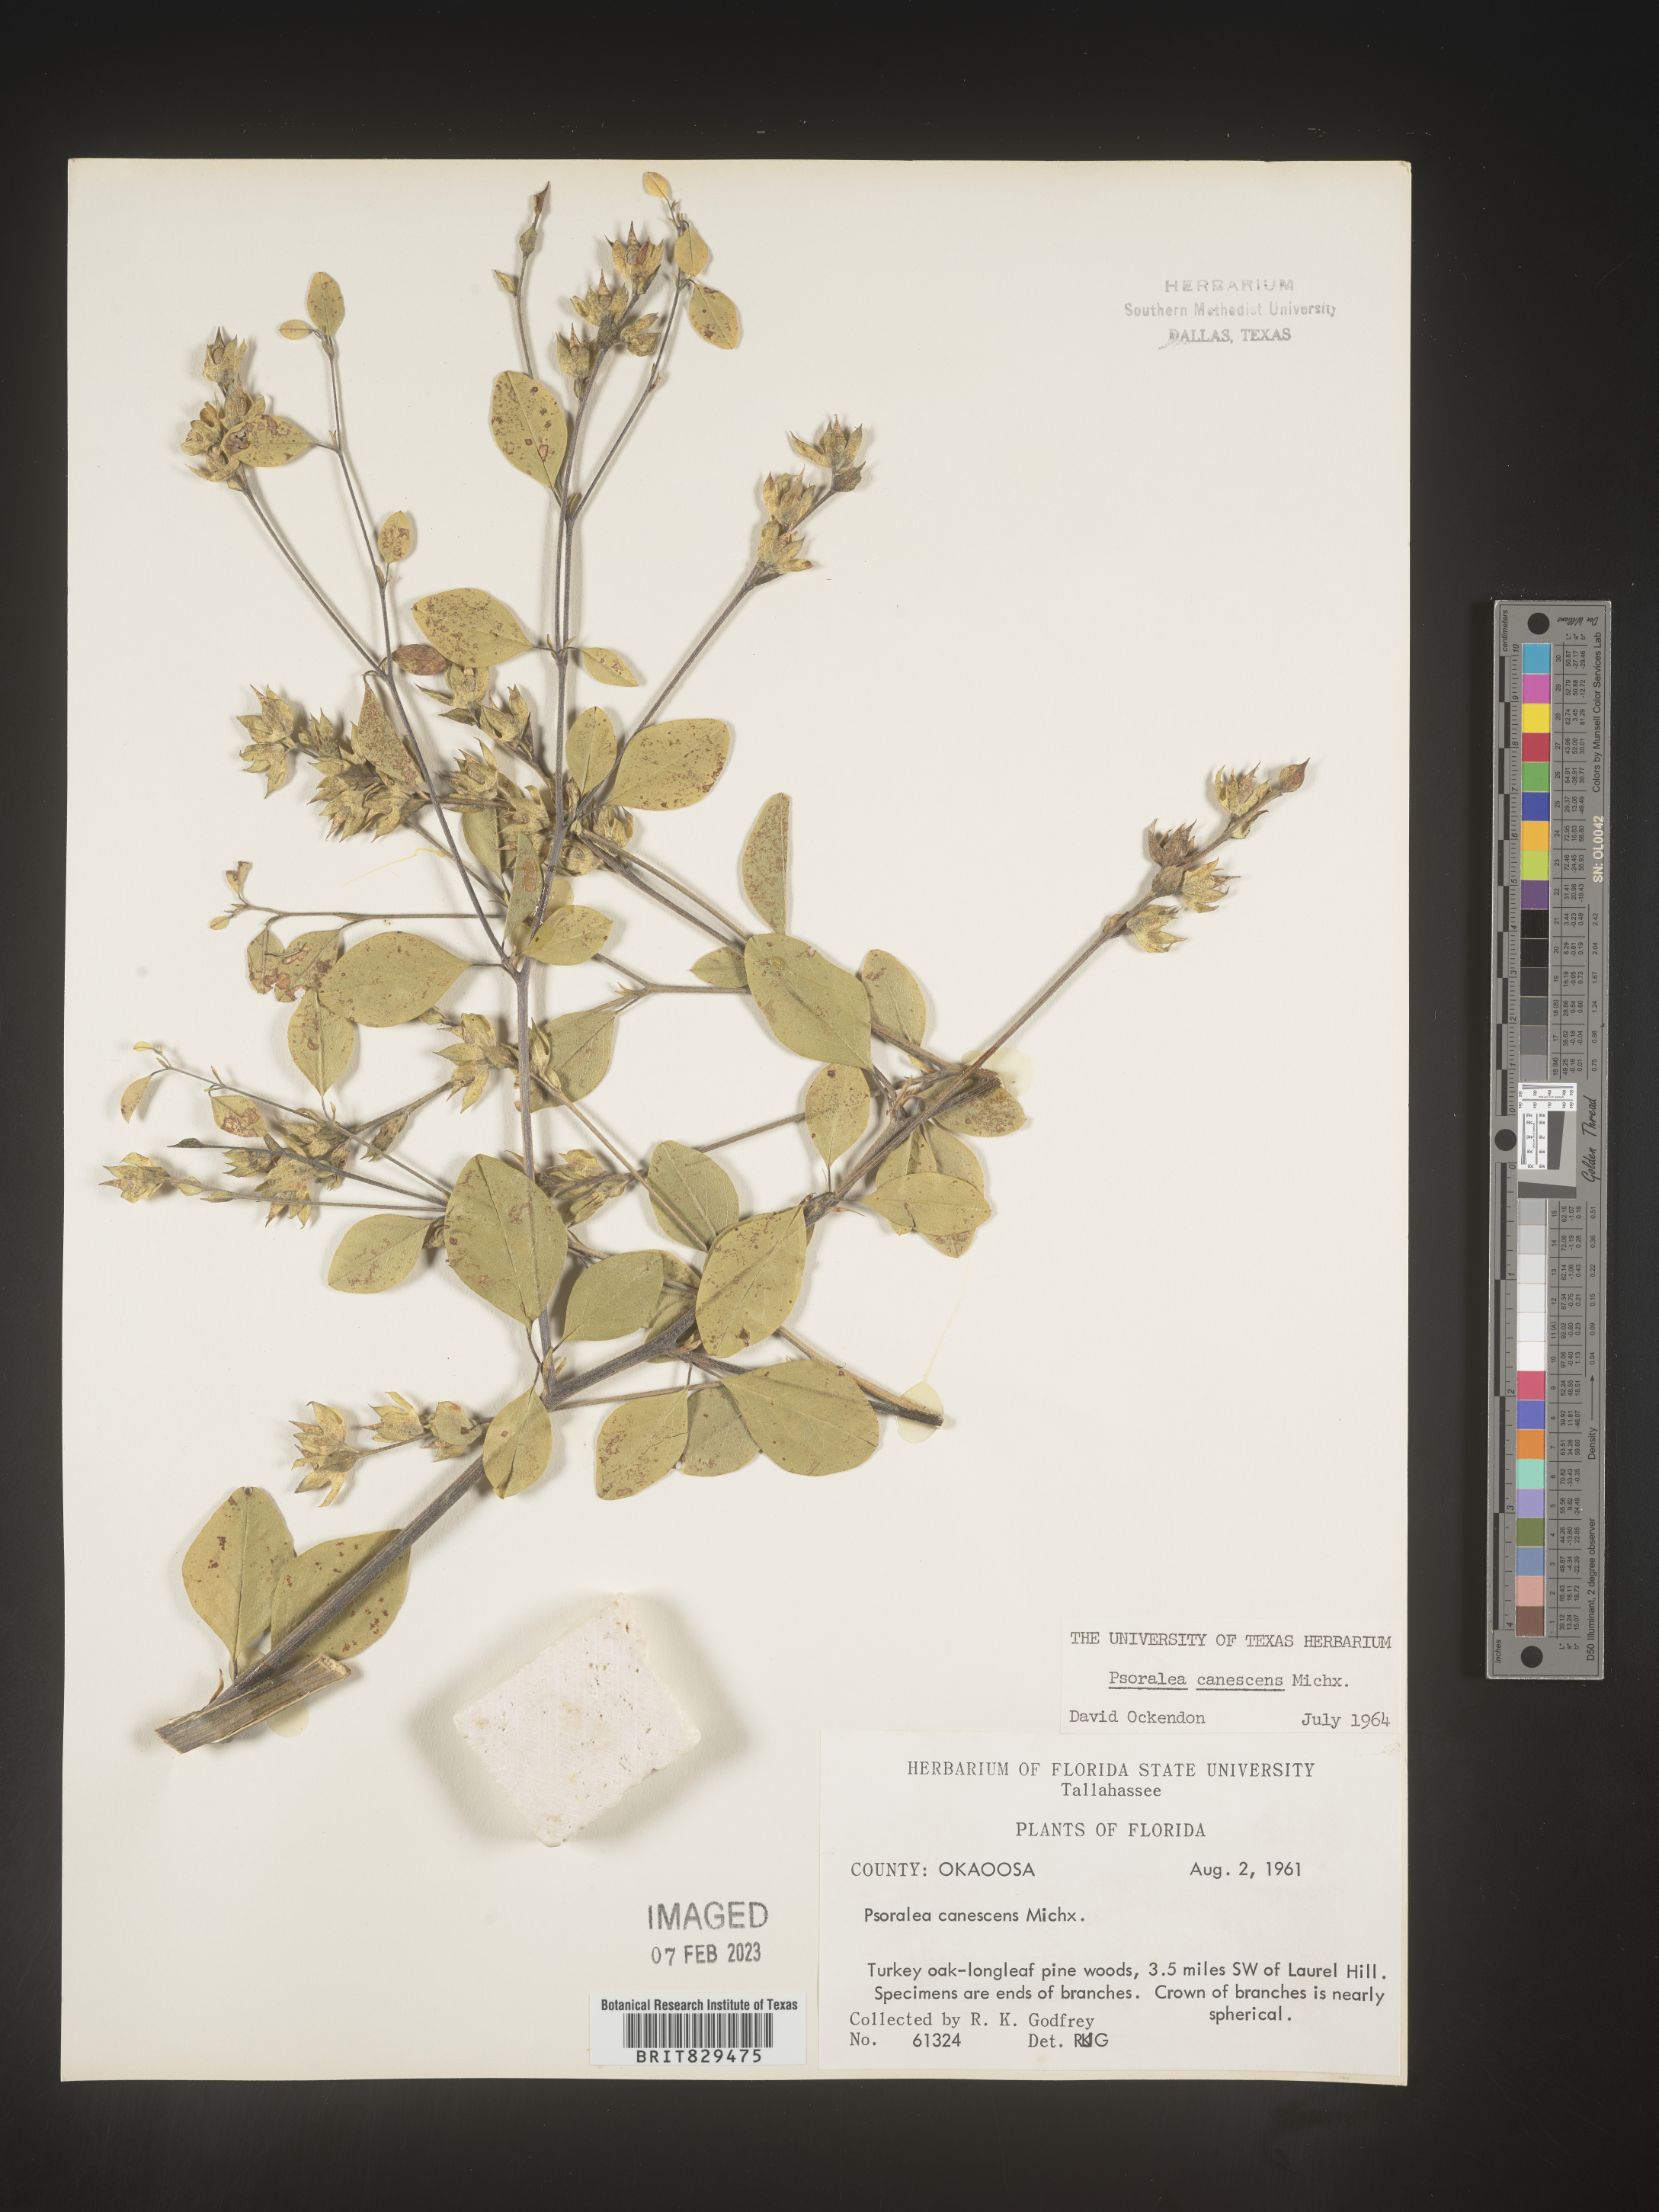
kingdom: Plantae
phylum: Tracheophyta
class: Magnoliopsida
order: Fabales
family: Fabaceae
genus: Pediomelum
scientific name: Pediomelum canescens
